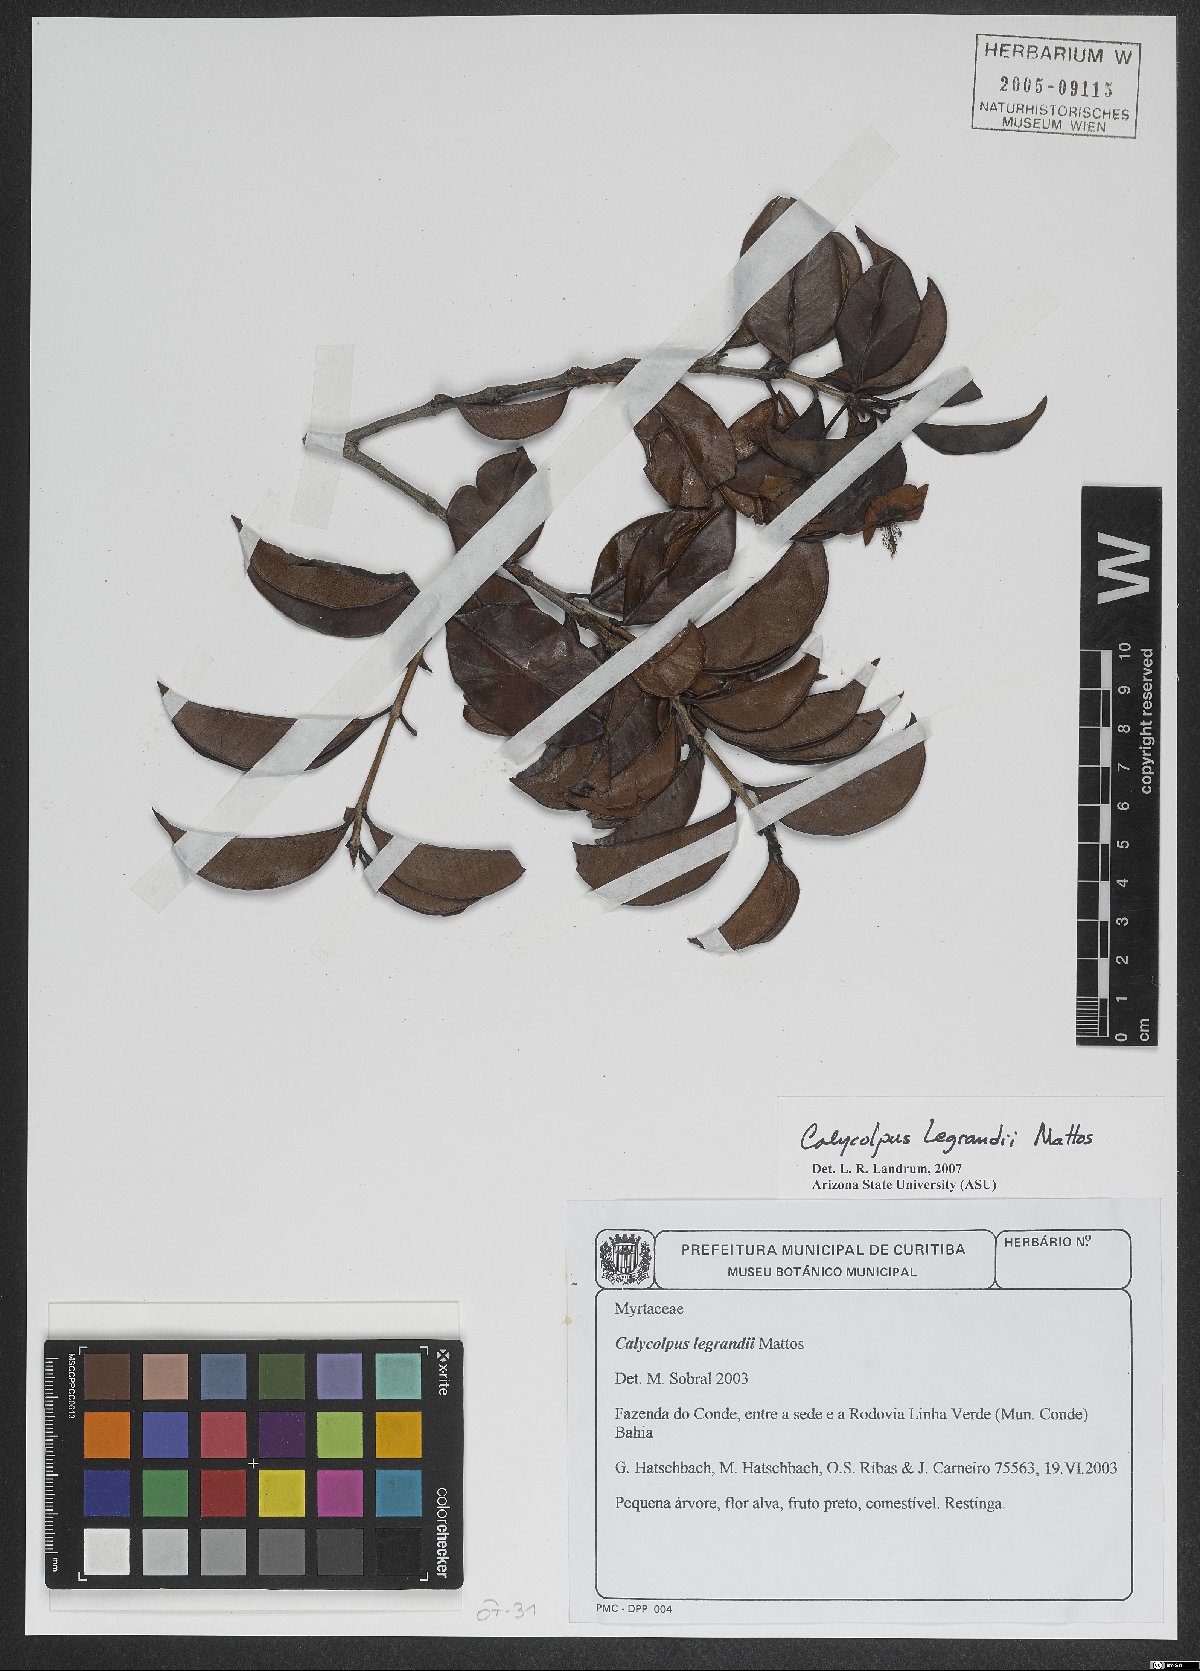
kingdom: Plantae
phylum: Tracheophyta
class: Magnoliopsida
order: Myrtales
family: Myrtaceae
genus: Calycolpus
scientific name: Calycolpus legrandii
